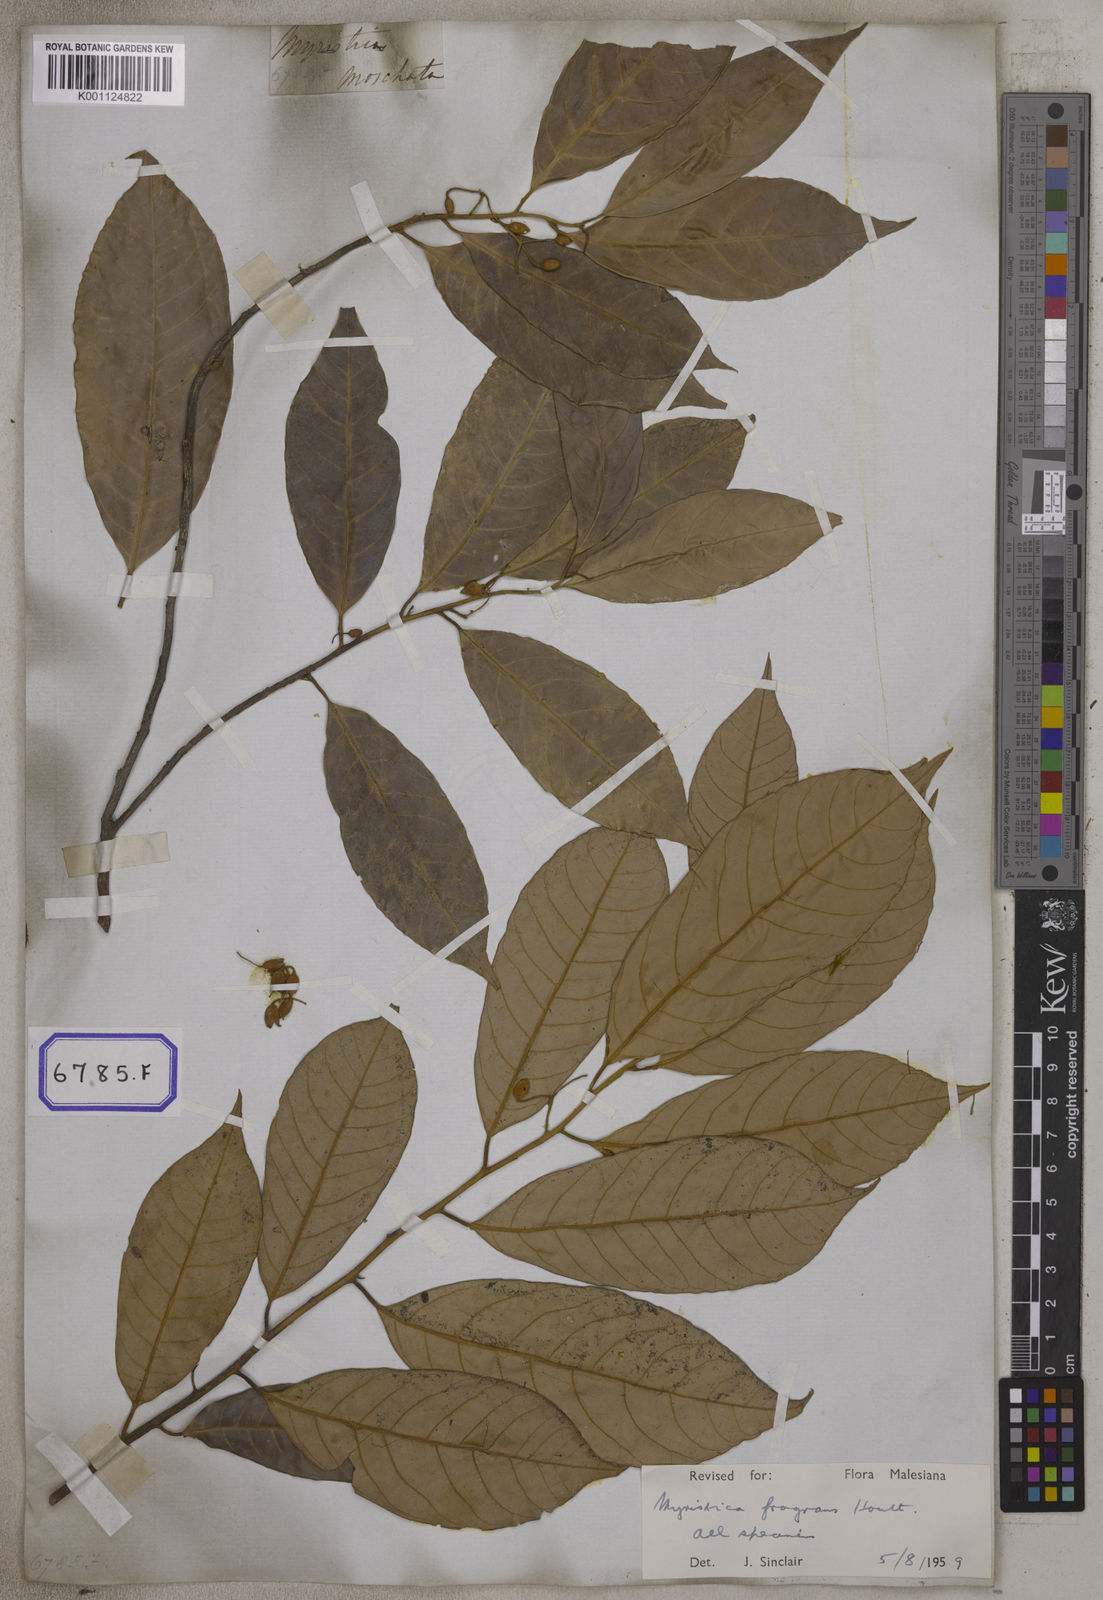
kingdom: Plantae
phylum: Tracheophyta
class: Magnoliopsida
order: Magnoliales
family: Myristicaceae
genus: Myristica
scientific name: Myristica fragrans
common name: Nutmeg
